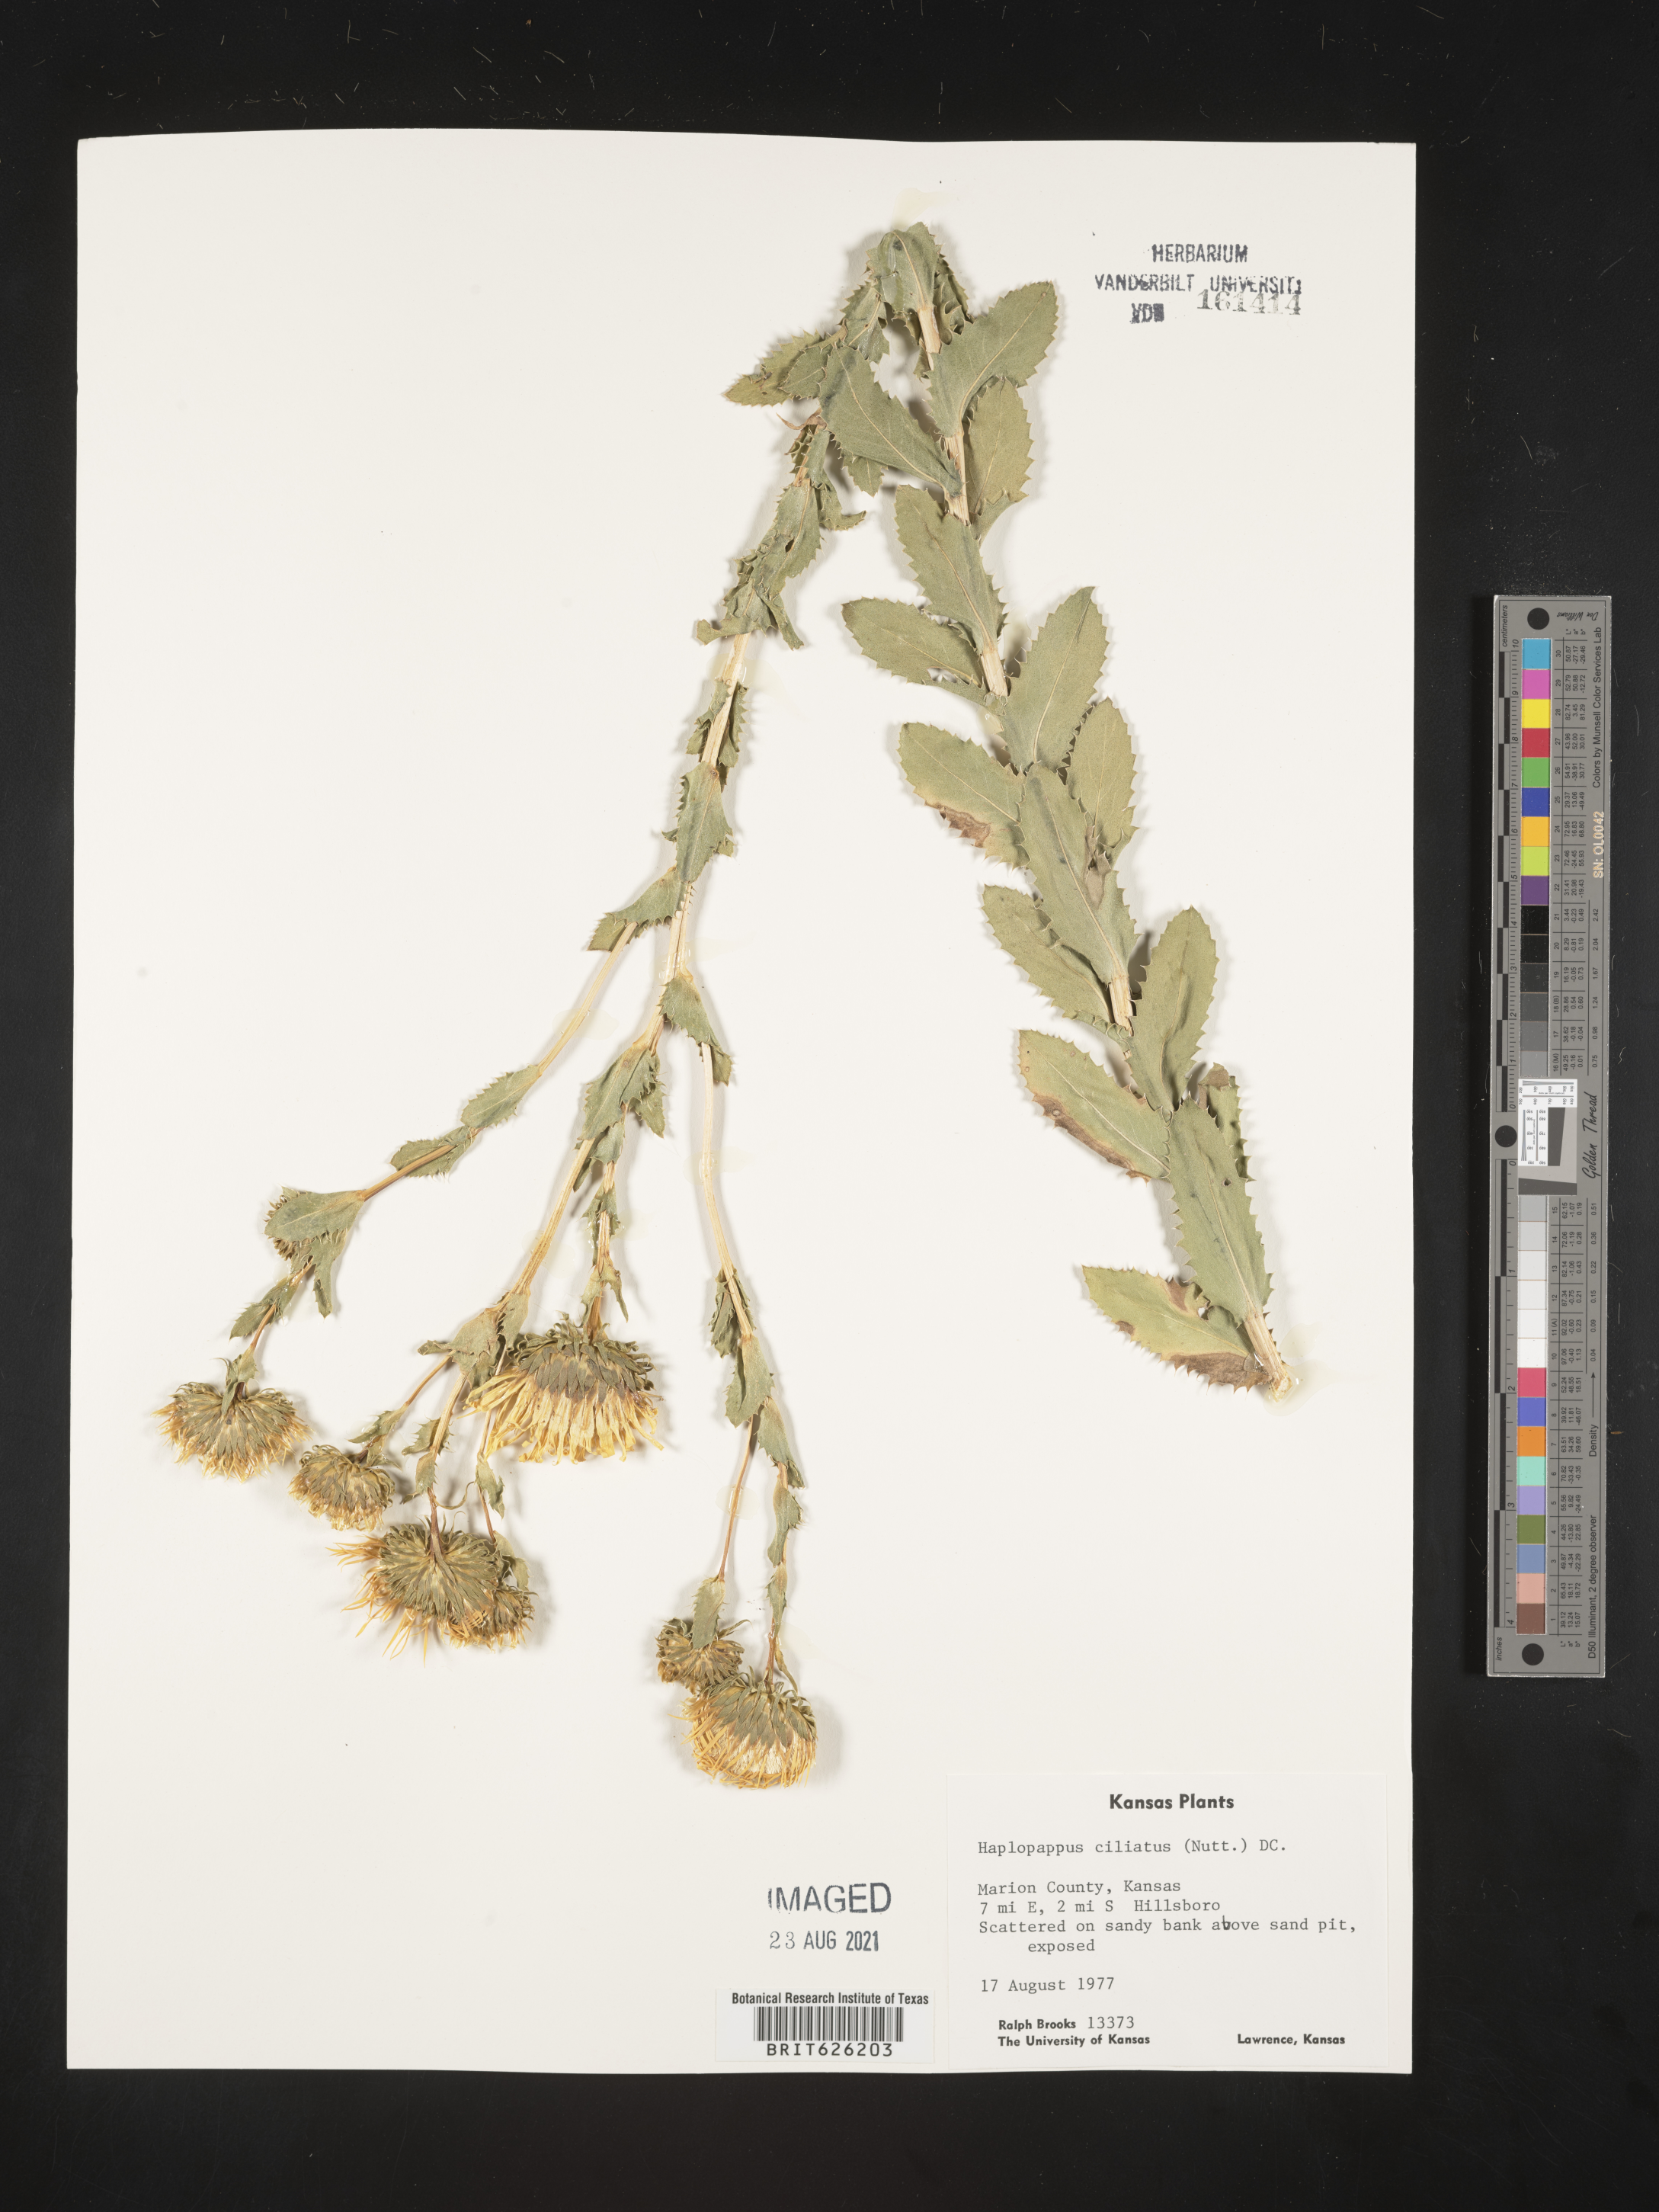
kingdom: Plantae
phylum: Tracheophyta
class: Magnoliopsida
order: Asterales
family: Asteraceae
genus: Grindelia
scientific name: Grindelia ciliata
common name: Goldenweed
